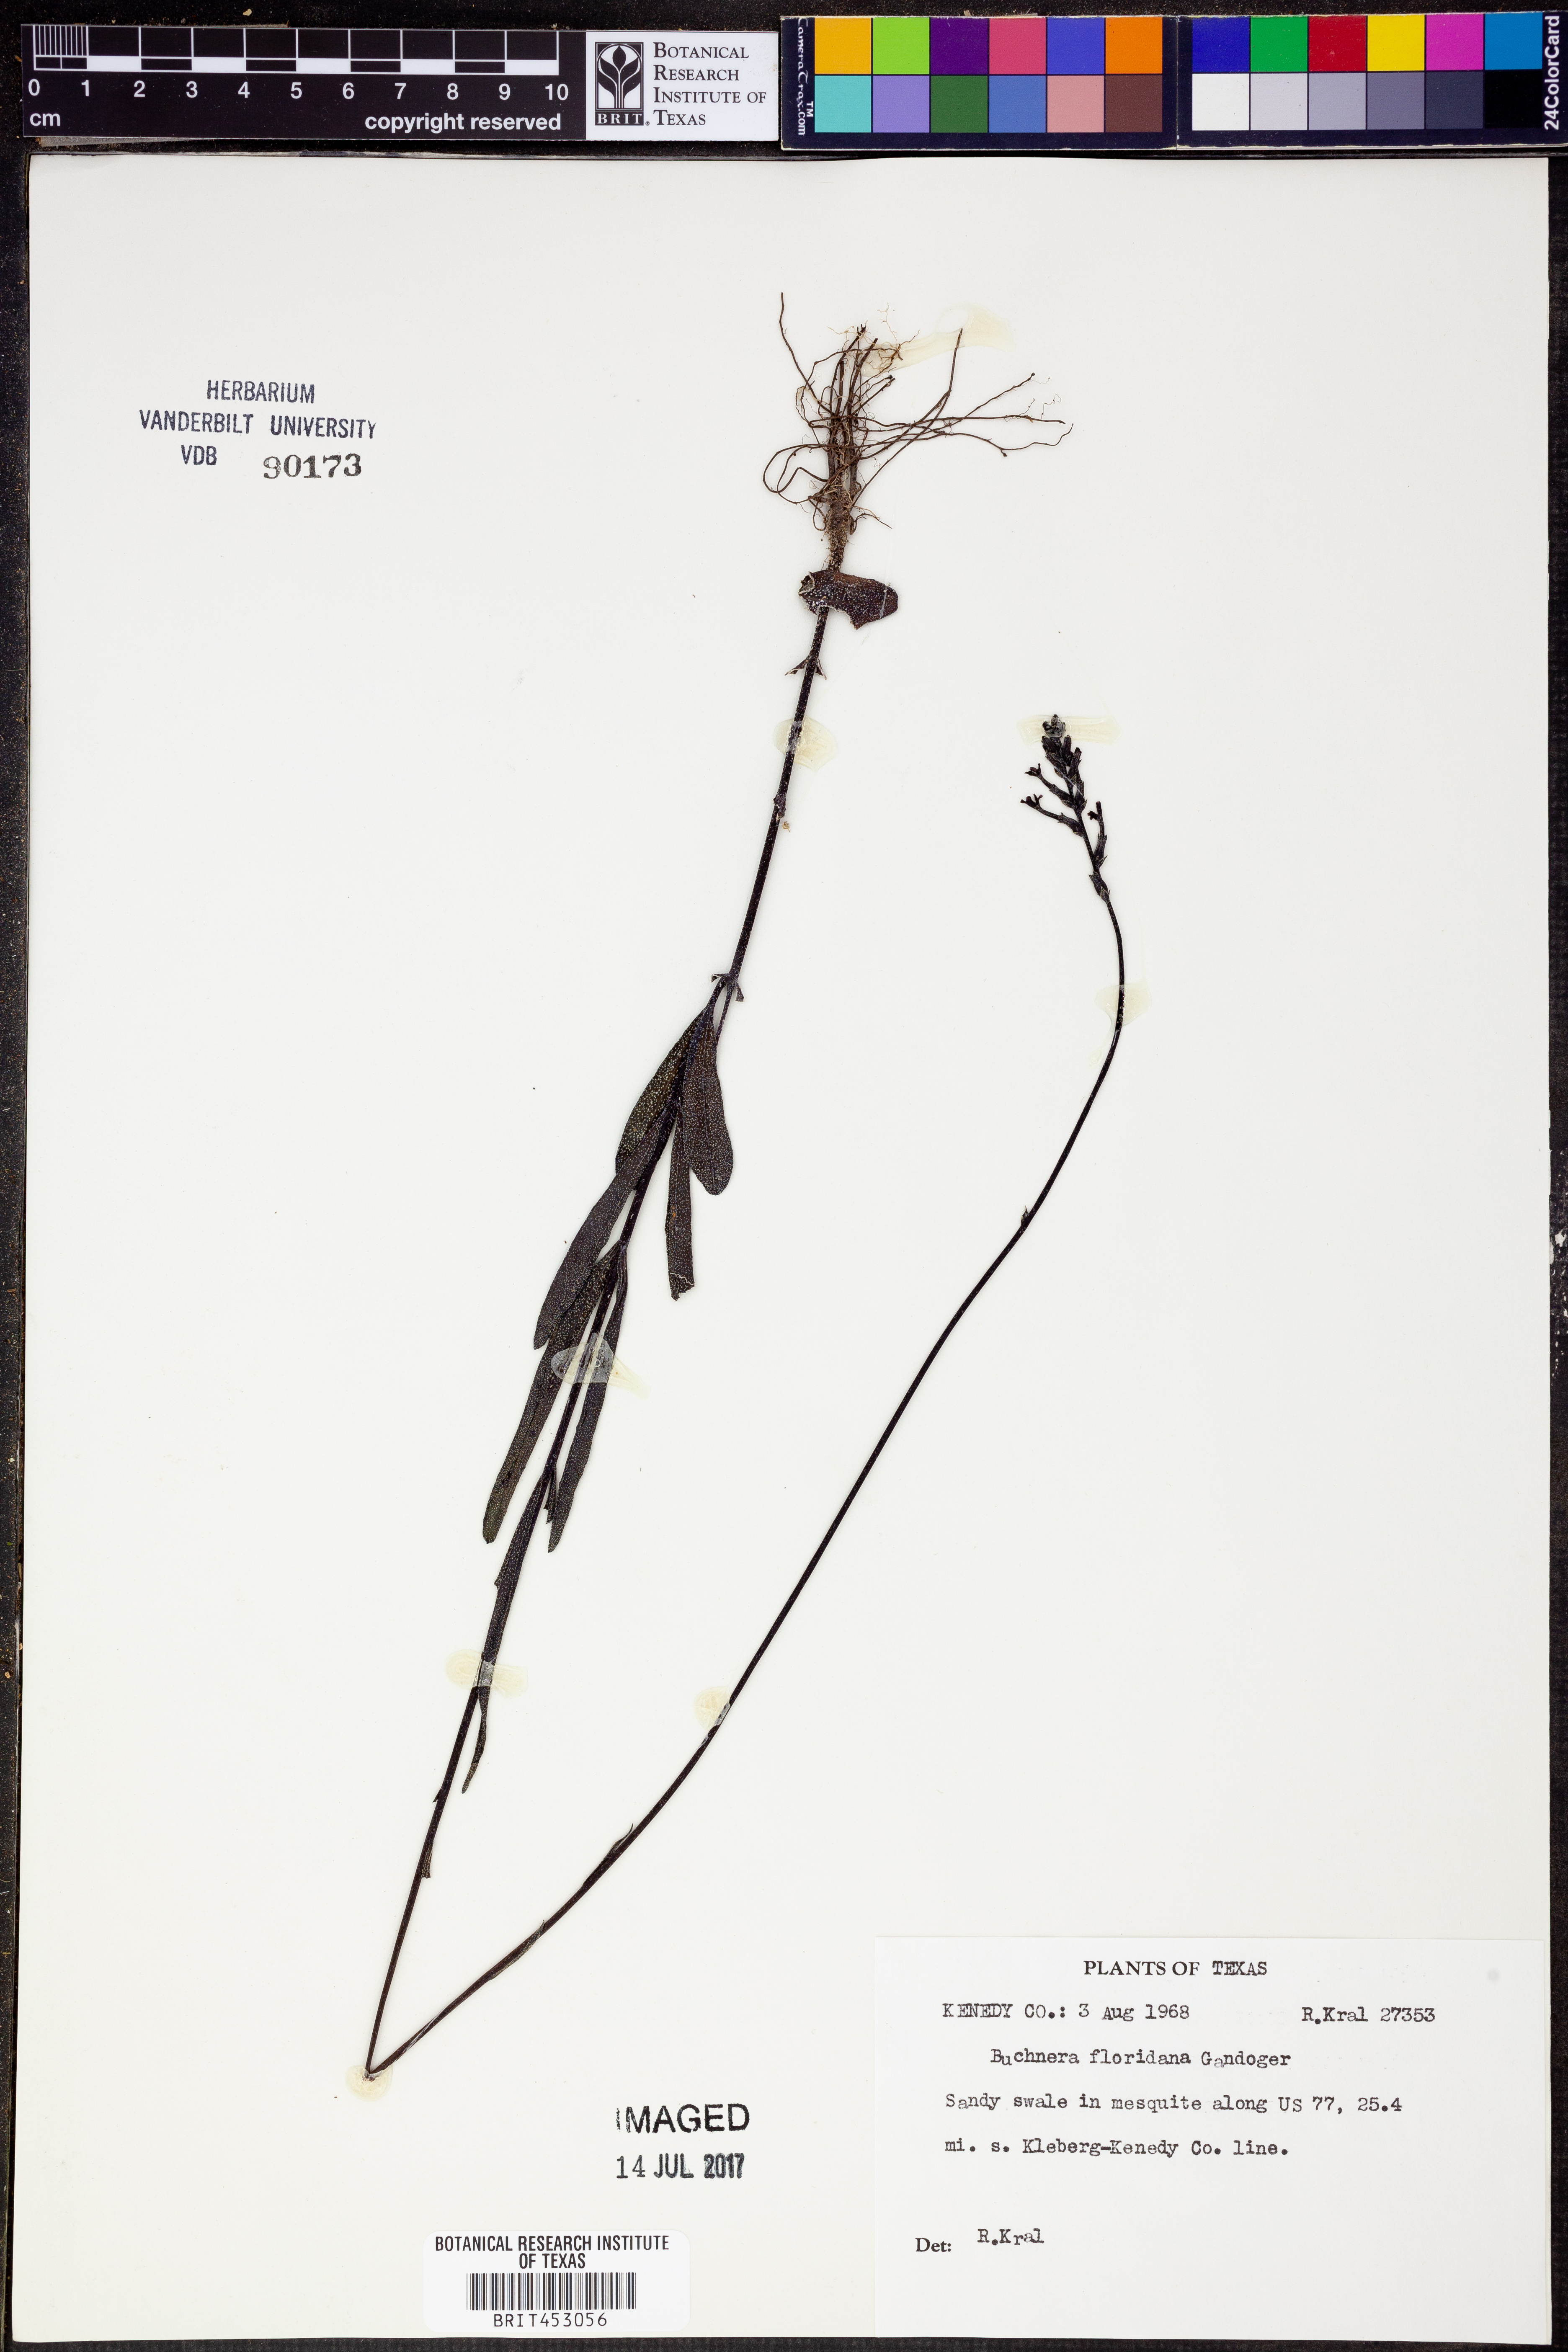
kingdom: Plantae
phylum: Tracheophyta
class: Magnoliopsida
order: Lamiales
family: Orobanchaceae
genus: Buchnera
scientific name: Buchnera floridana
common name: Florida bluehearts
